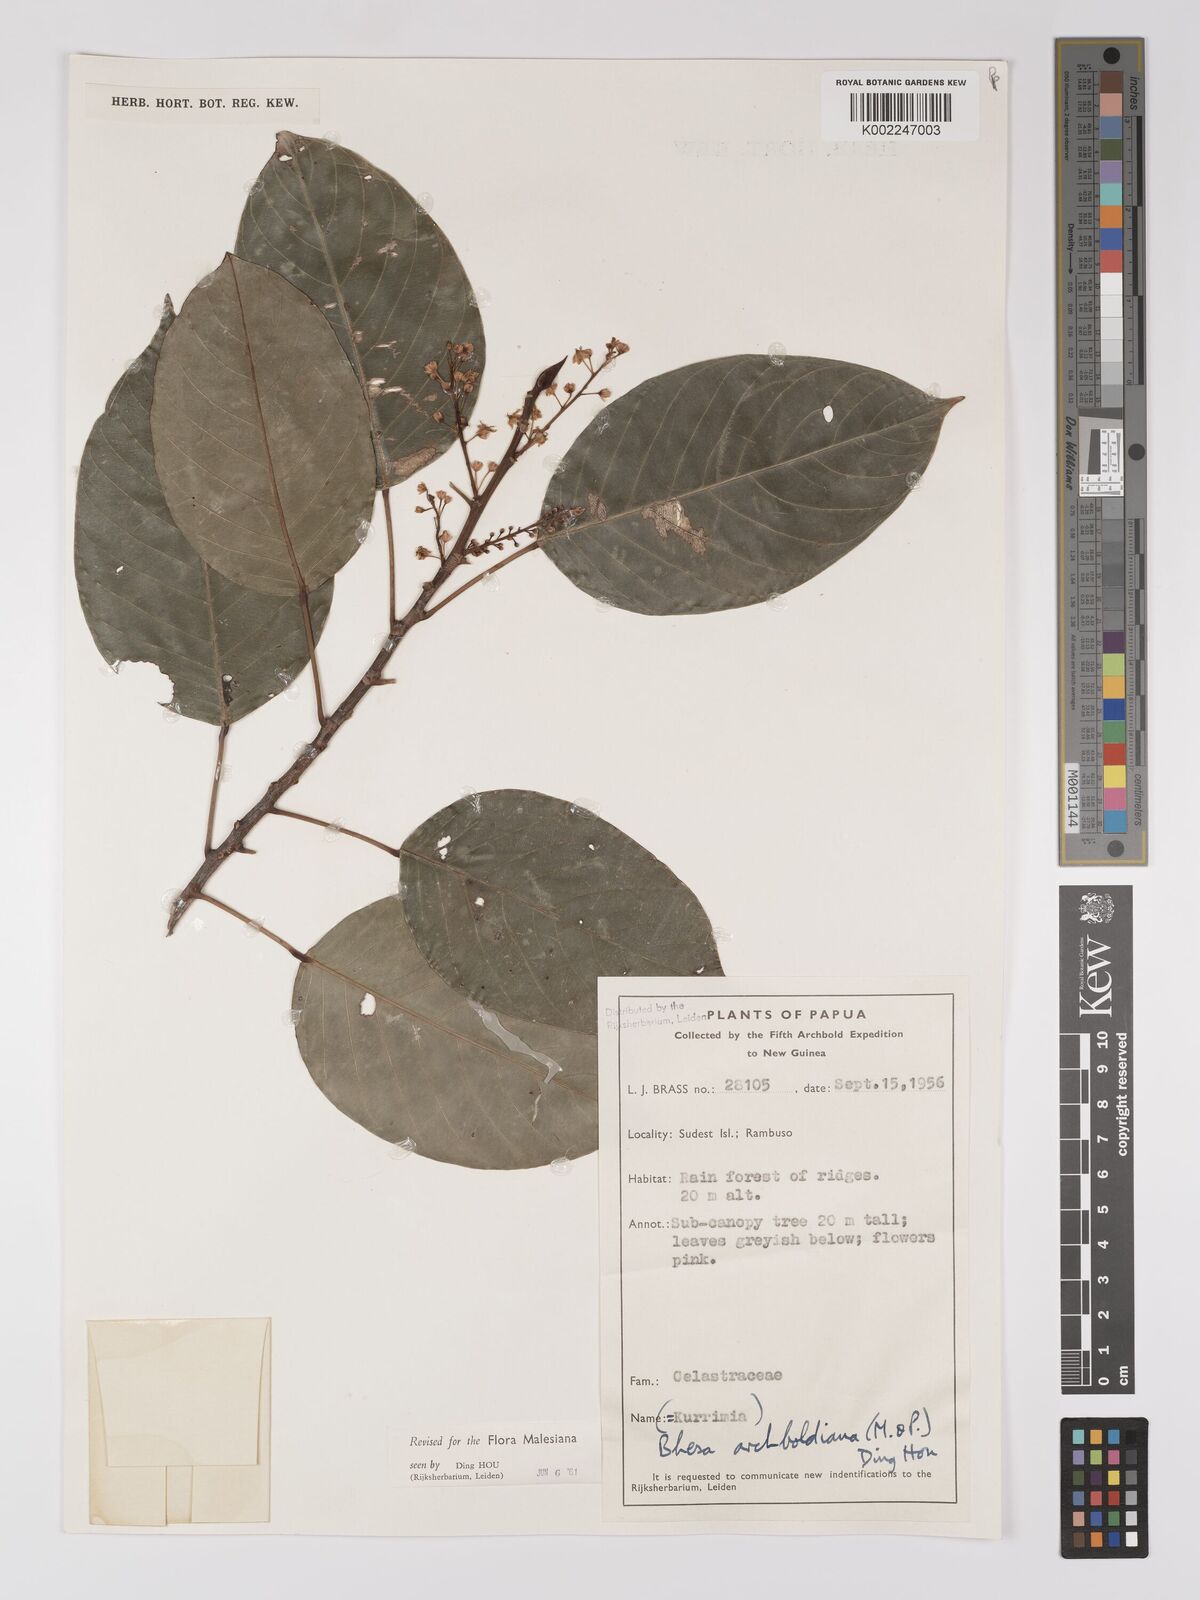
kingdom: Plantae
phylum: Tracheophyta
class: Magnoliopsida
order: Malpighiales
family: Centroplacaceae
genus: Bhesa
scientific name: Bhesa archboldiana
